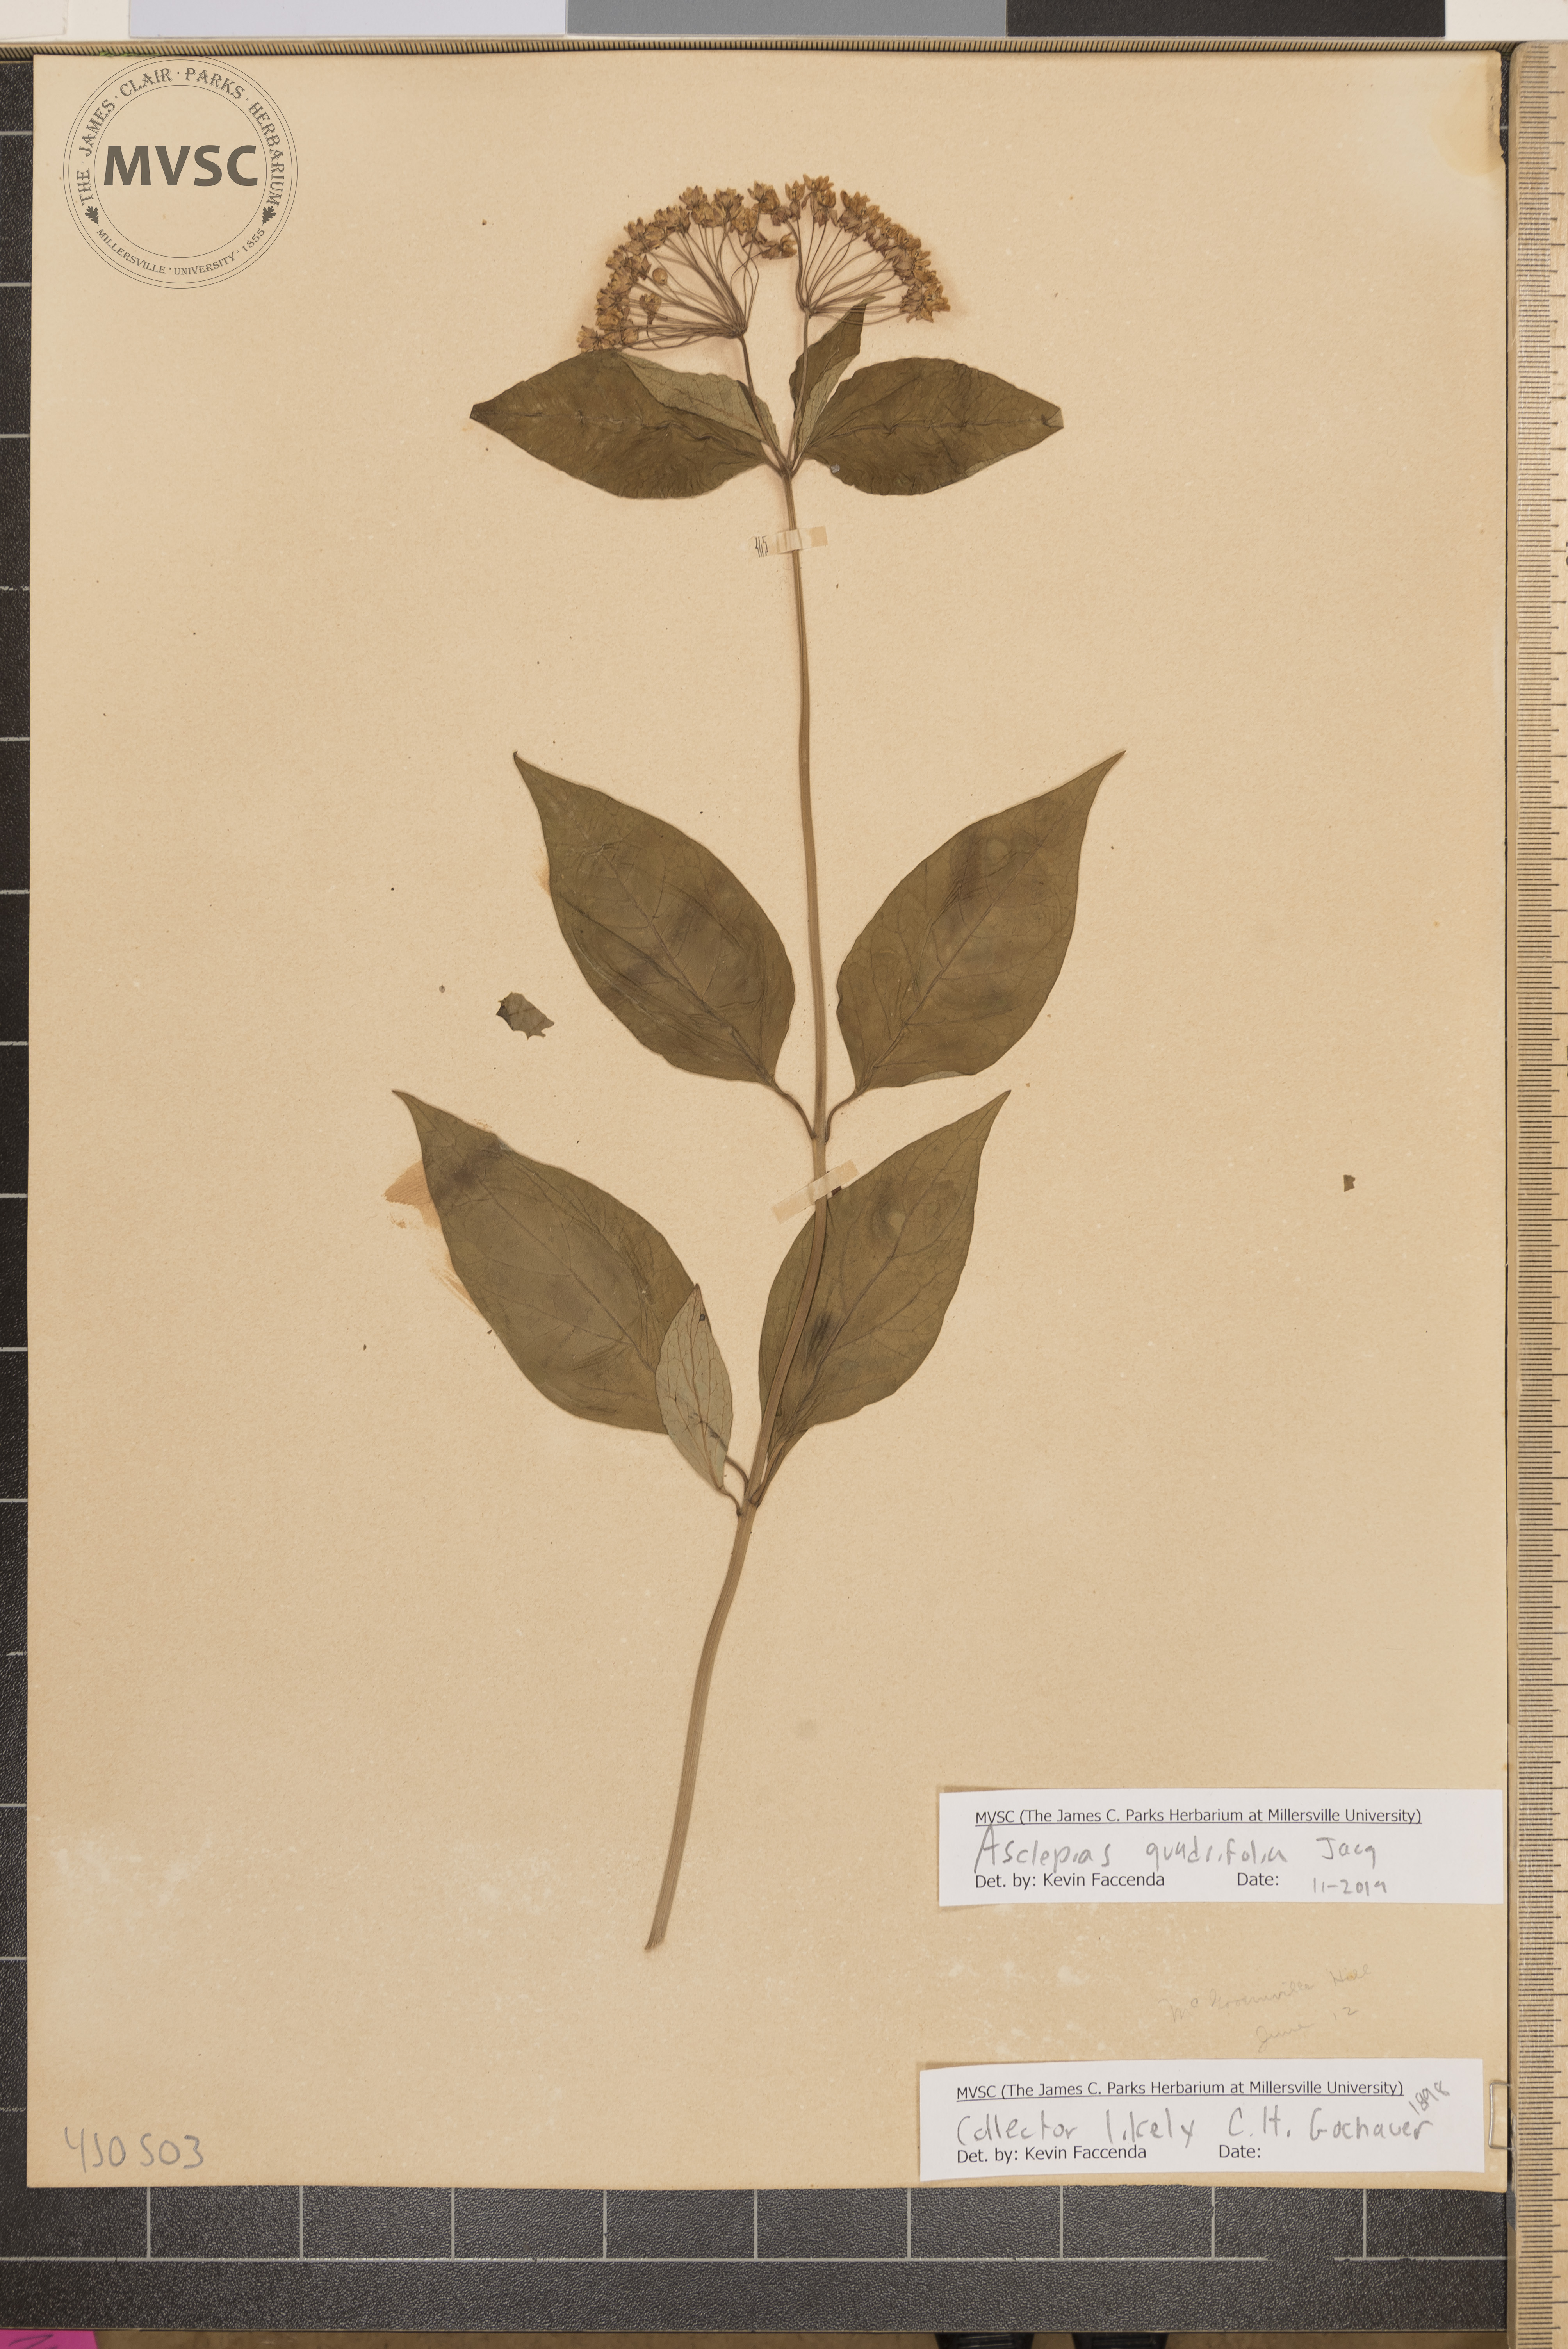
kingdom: Plantae
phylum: Tracheophyta
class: Magnoliopsida
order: Gentianales
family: Apocynaceae
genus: Asclepias
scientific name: Asclepias quadrifolia
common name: Whorled milkweed
